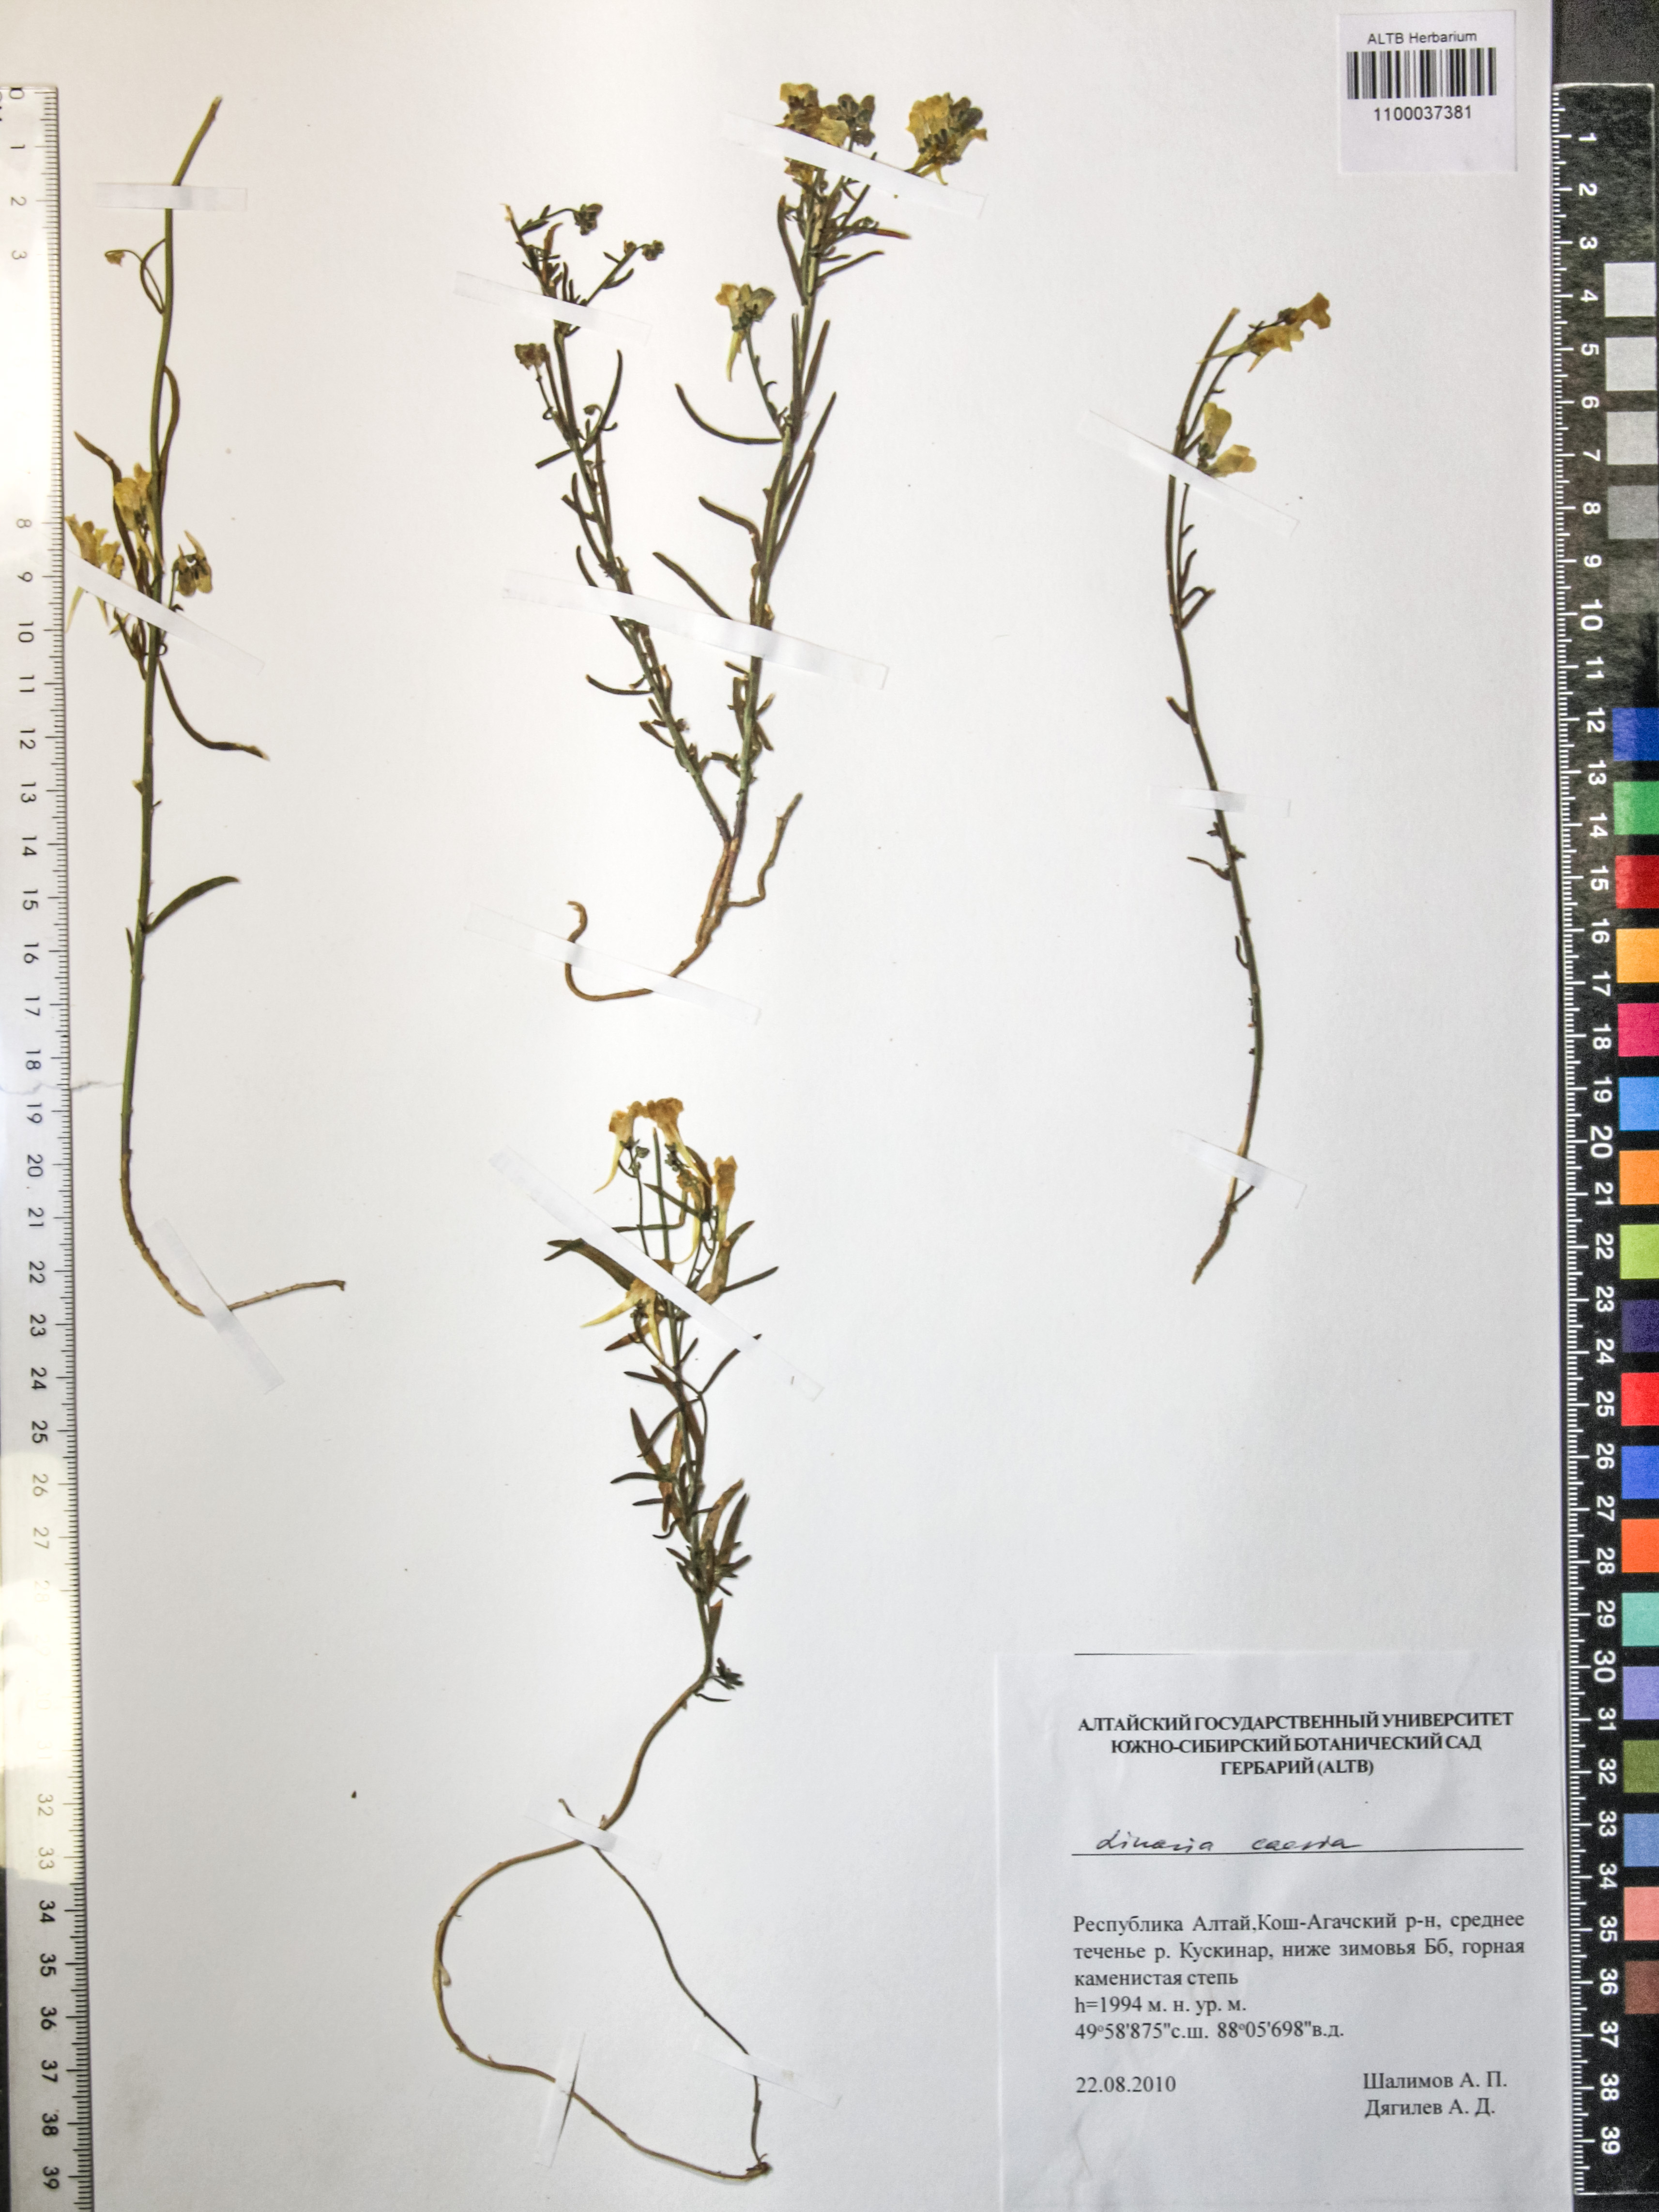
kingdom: Plantae
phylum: Tracheophyta
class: Magnoliopsida
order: Lamiales
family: Plantaginaceae
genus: Linaria
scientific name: Linaria caesia
